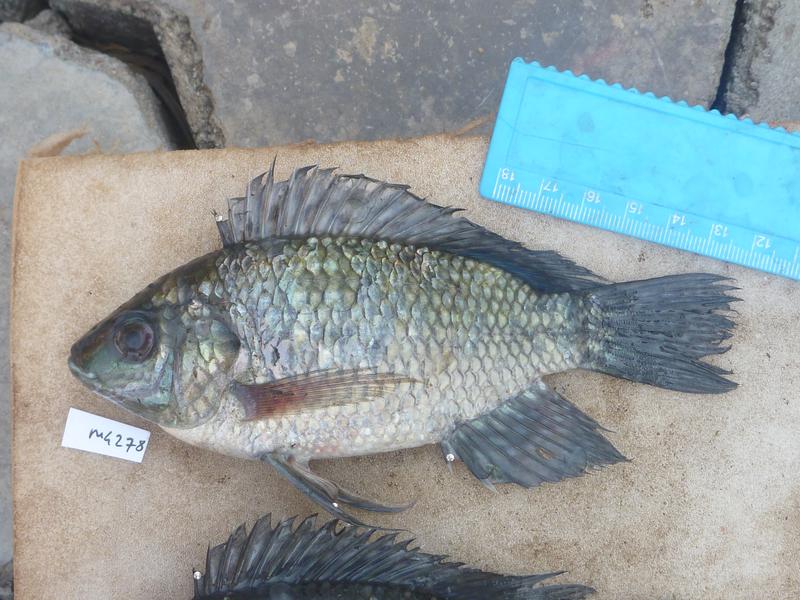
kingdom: Animalia
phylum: Chordata
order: Perciformes
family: Cichlidae
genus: Oreochromis
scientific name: Oreochromis leucostictus
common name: Blue spotted tilapia
